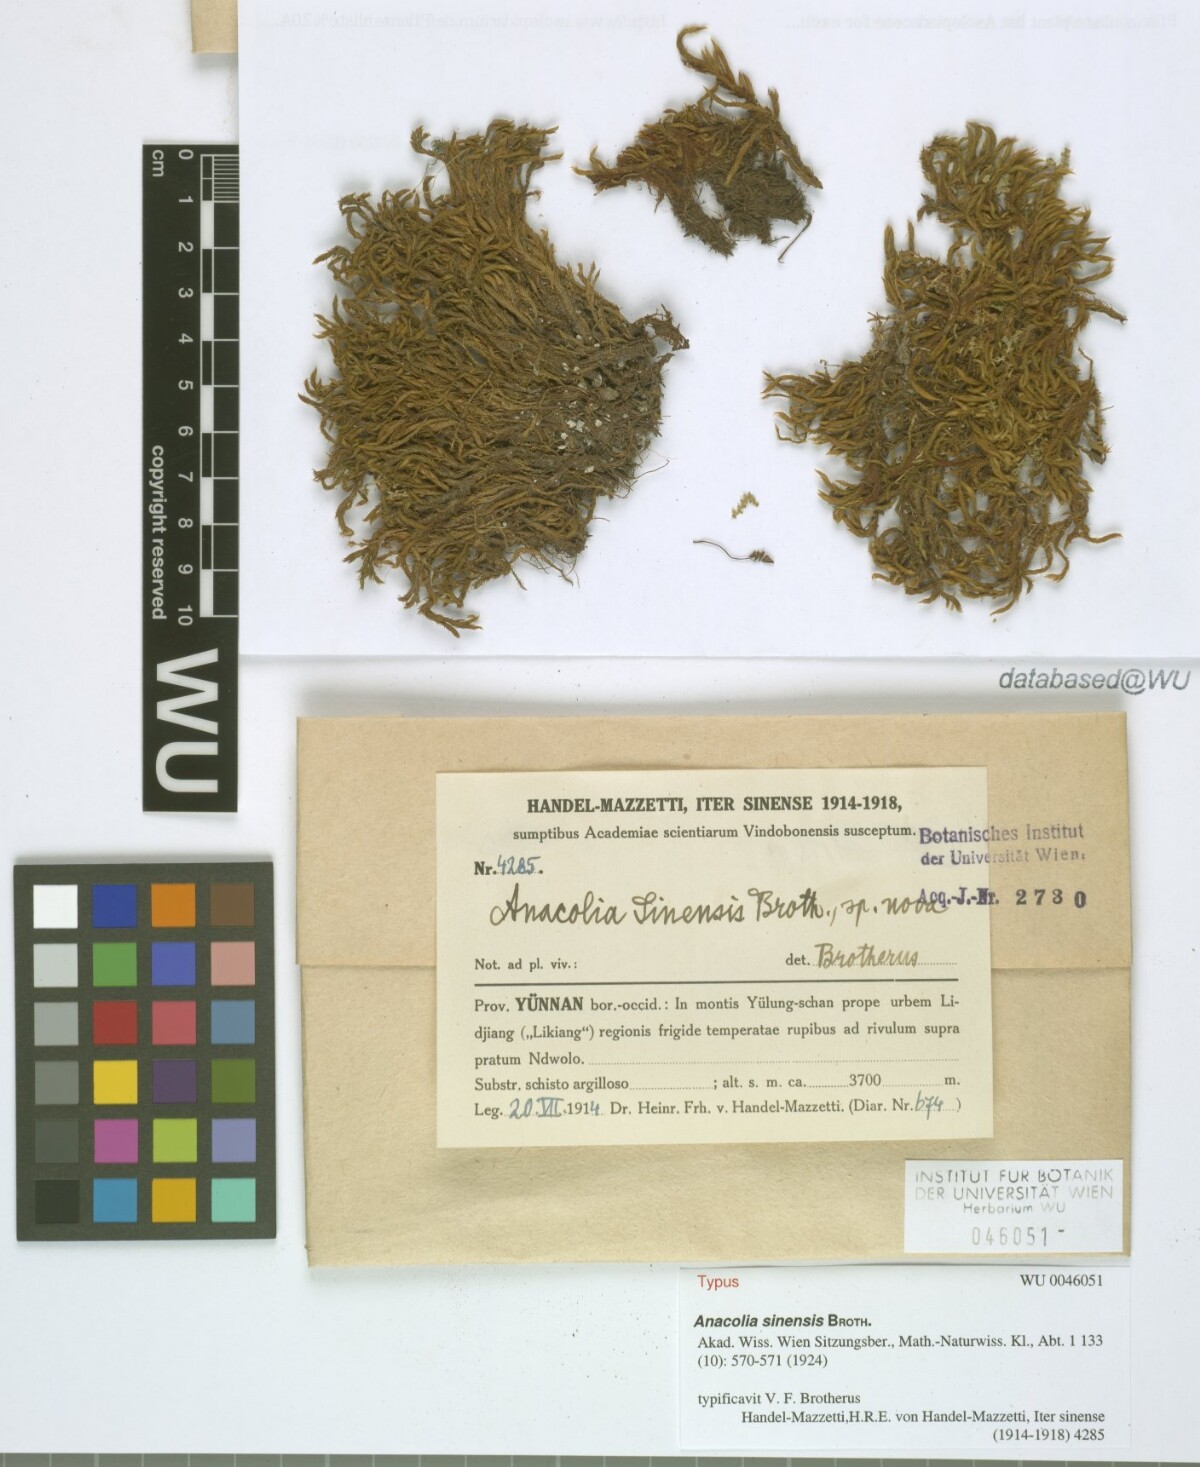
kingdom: Plantae
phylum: Bryophyta
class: Bryopsida
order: Bartramiales
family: Bartramiaceae
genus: Flowersia
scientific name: Flowersia sinensis
